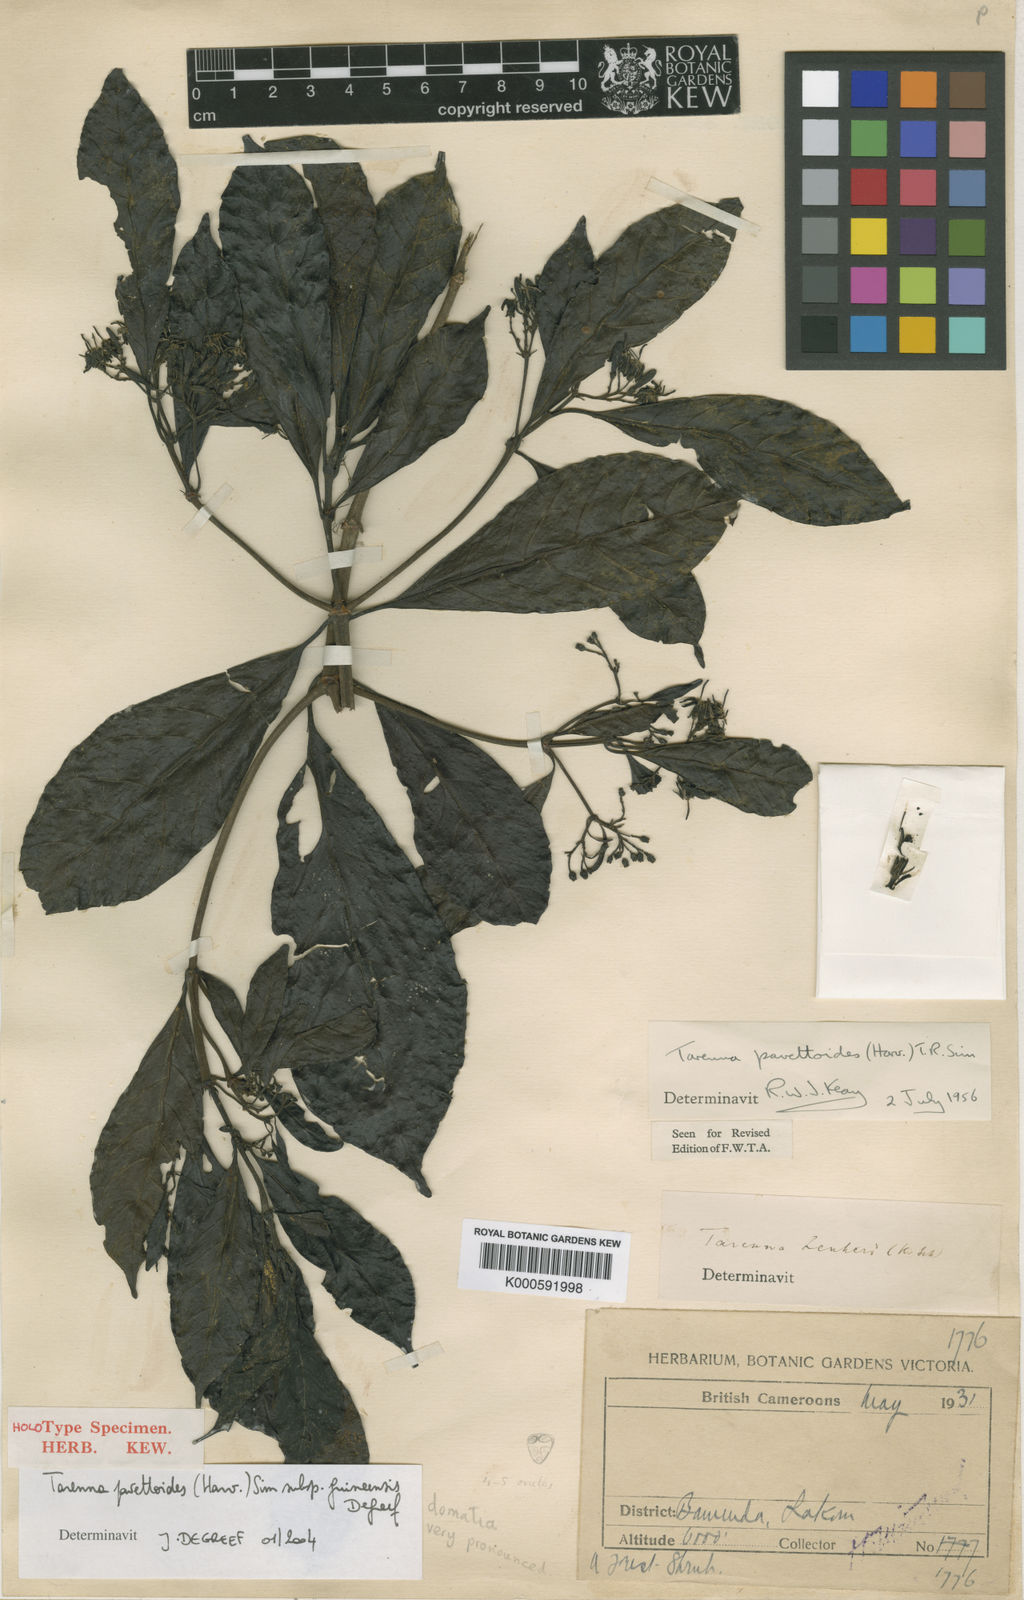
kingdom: Plantae
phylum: Tracheophyta
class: Magnoliopsida
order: Gentianales
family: Rubiaceae
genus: Tarenna
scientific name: Tarenna pavettoides
